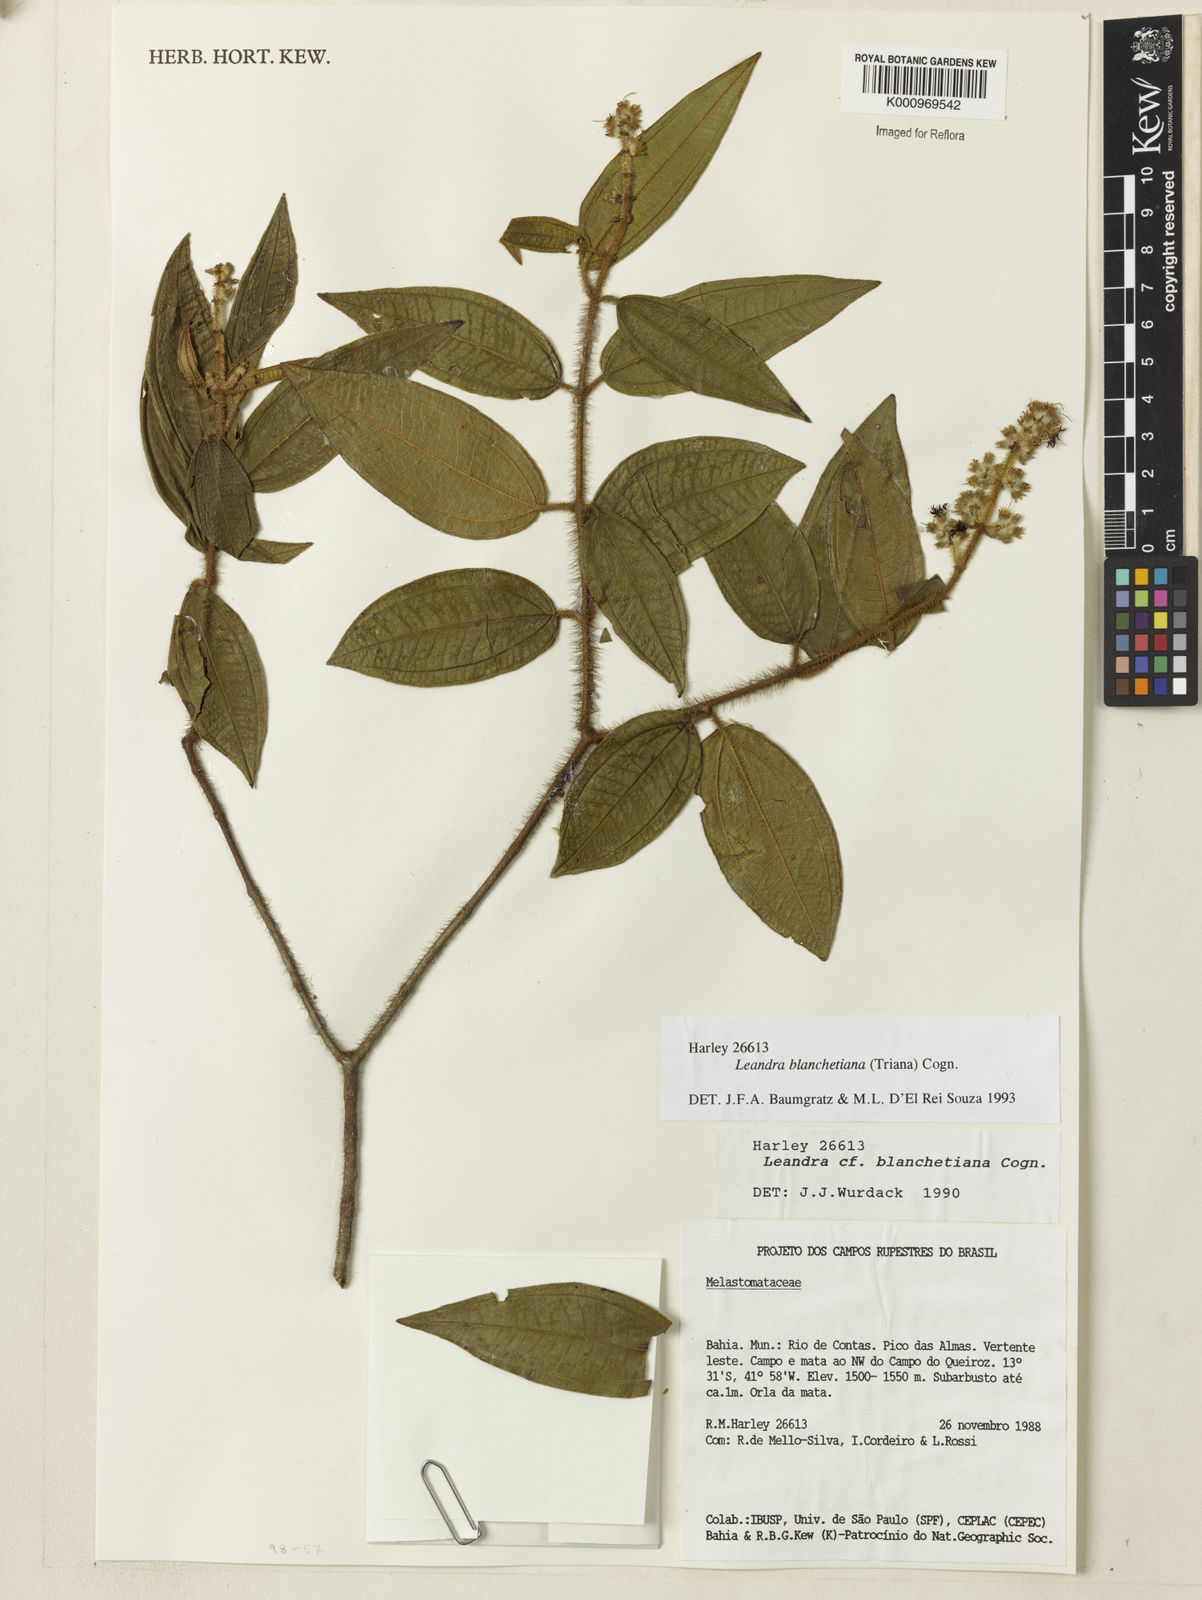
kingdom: Plantae
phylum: Tracheophyta
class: Magnoliopsida
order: Myrtales
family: Melastomataceae
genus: Miconia
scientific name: Miconia leablanchetiana
